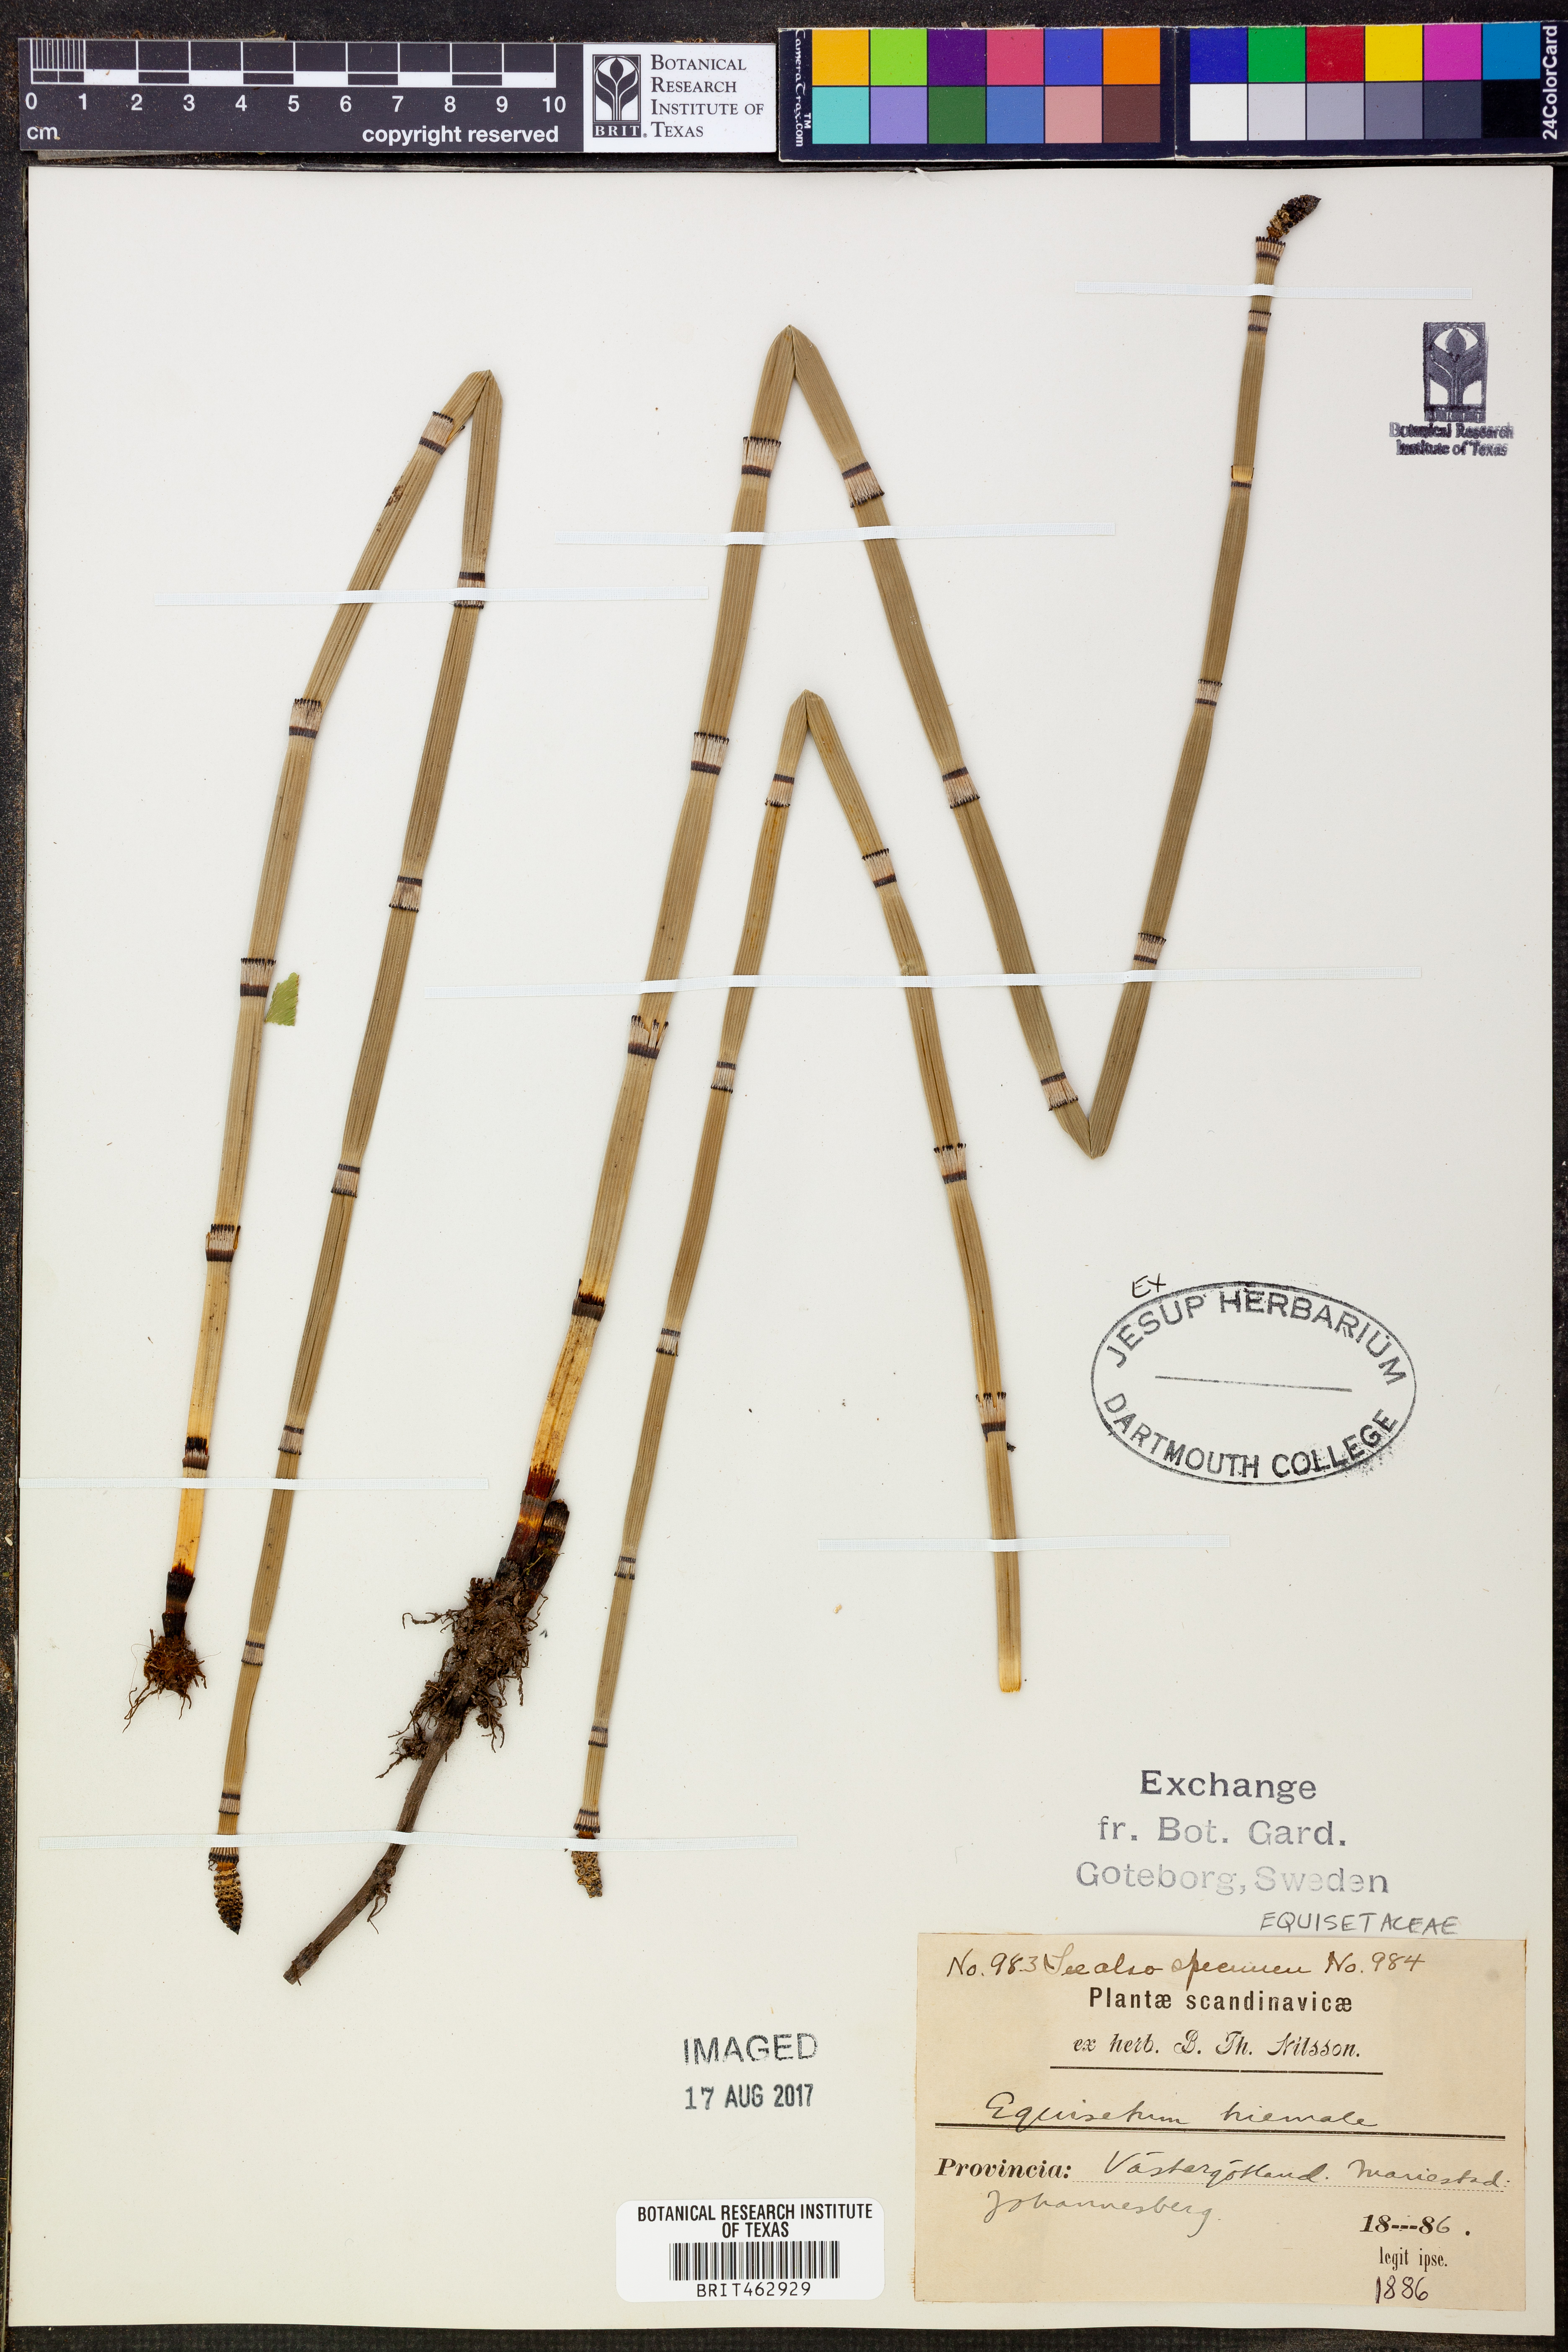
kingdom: Plantae
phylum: Tracheophyta
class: Polypodiopsida
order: Equisetales
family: Equisetaceae
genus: Equisetum
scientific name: Equisetum hyemale
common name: Rough horsetail
